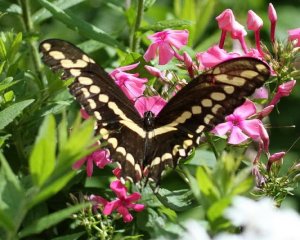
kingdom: Animalia
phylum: Arthropoda
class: Insecta
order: Lepidoptera
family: Papilionidae
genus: Papilio
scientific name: Papilio cresphontes
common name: Eastern Giant Swallowtail
